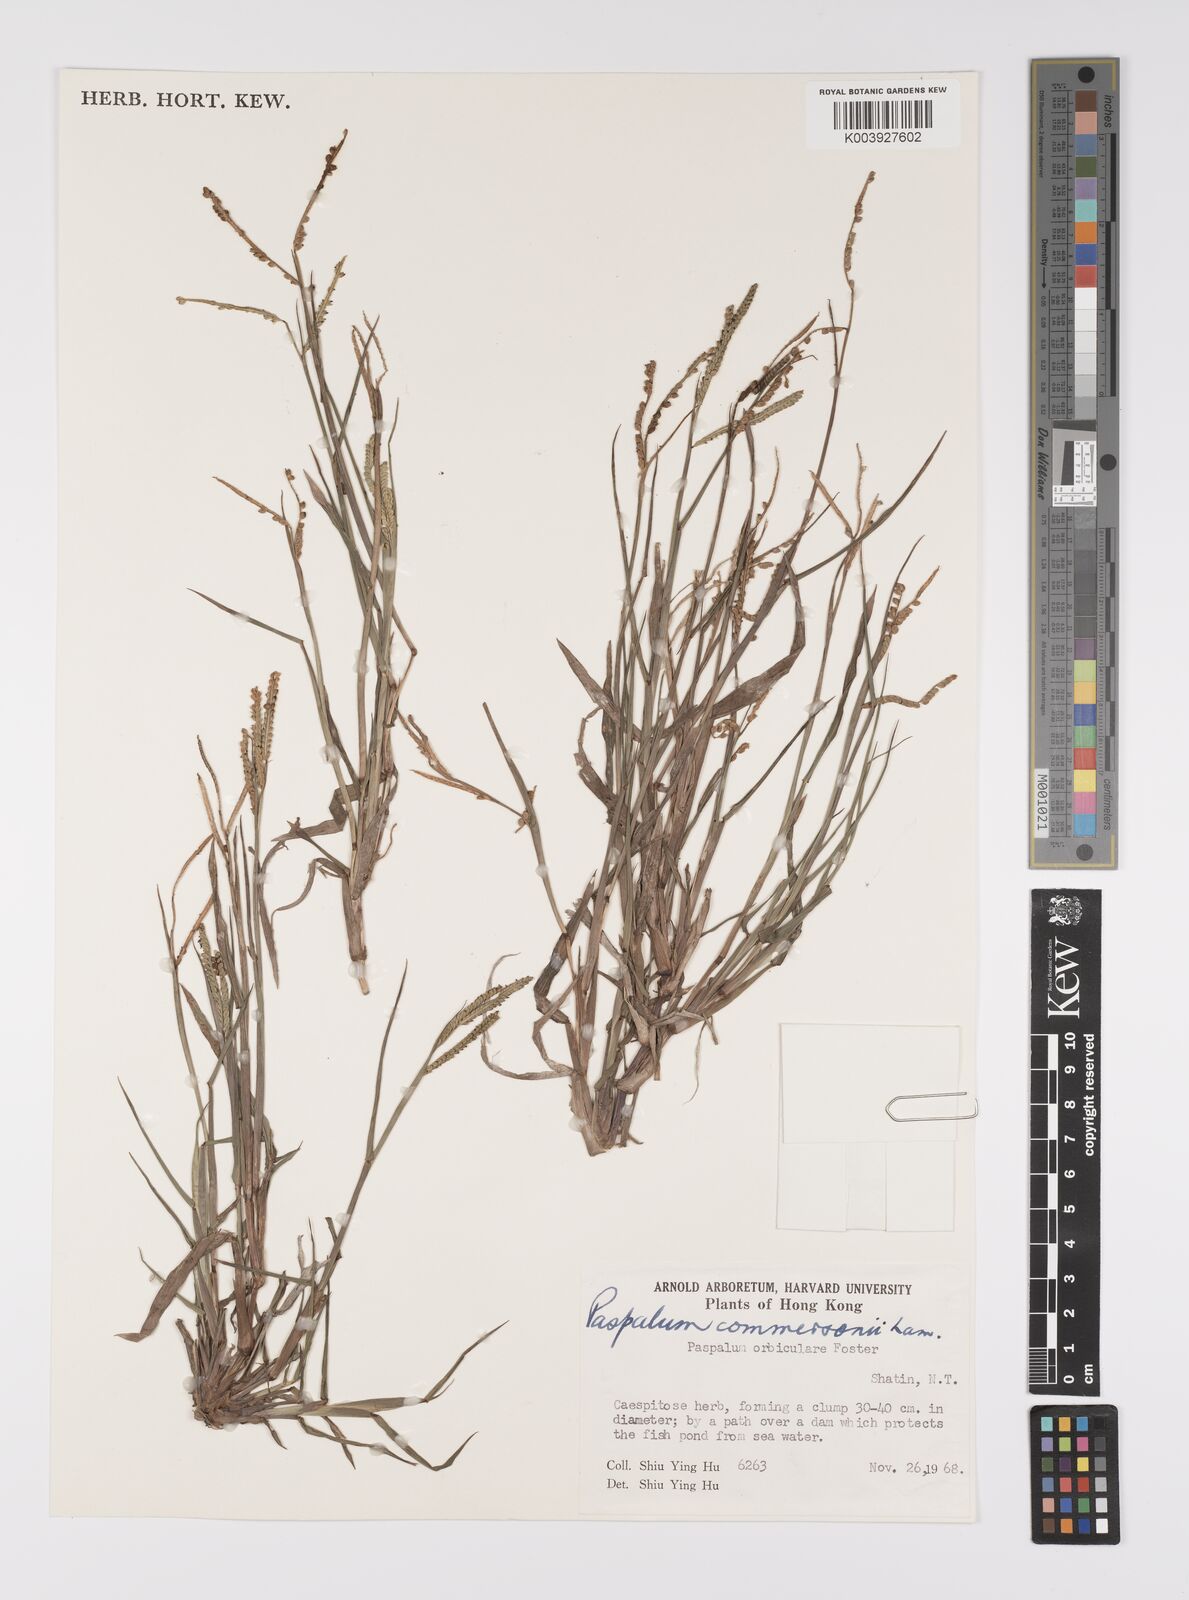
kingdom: Plantae
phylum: Tracheophyta
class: Liliopsida
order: Poales
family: Poaceae
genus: Paspalum
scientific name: Paspalum scrobiculatum
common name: Kodo millet
